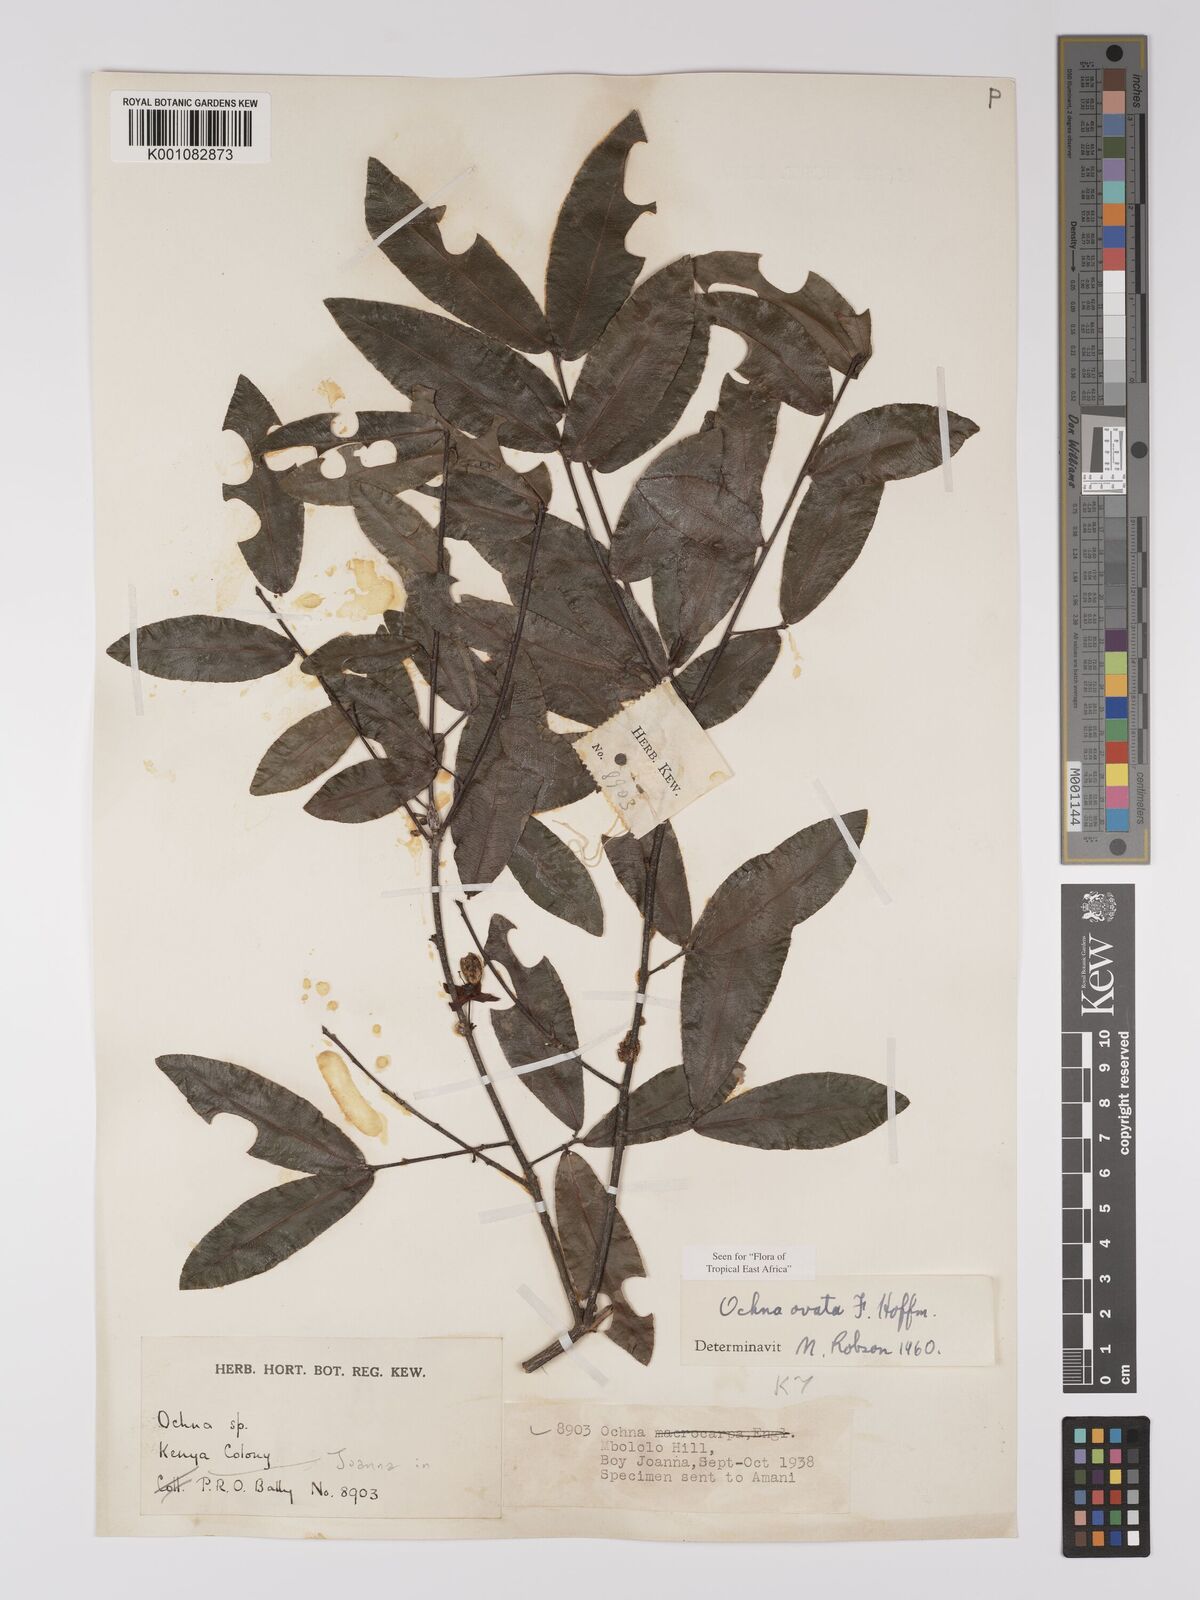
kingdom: Plantae
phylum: Tracheophyta
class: Magnoliopsida
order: Malpighiales
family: Ochnaceae
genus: Ochna
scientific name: Ochna ovata
